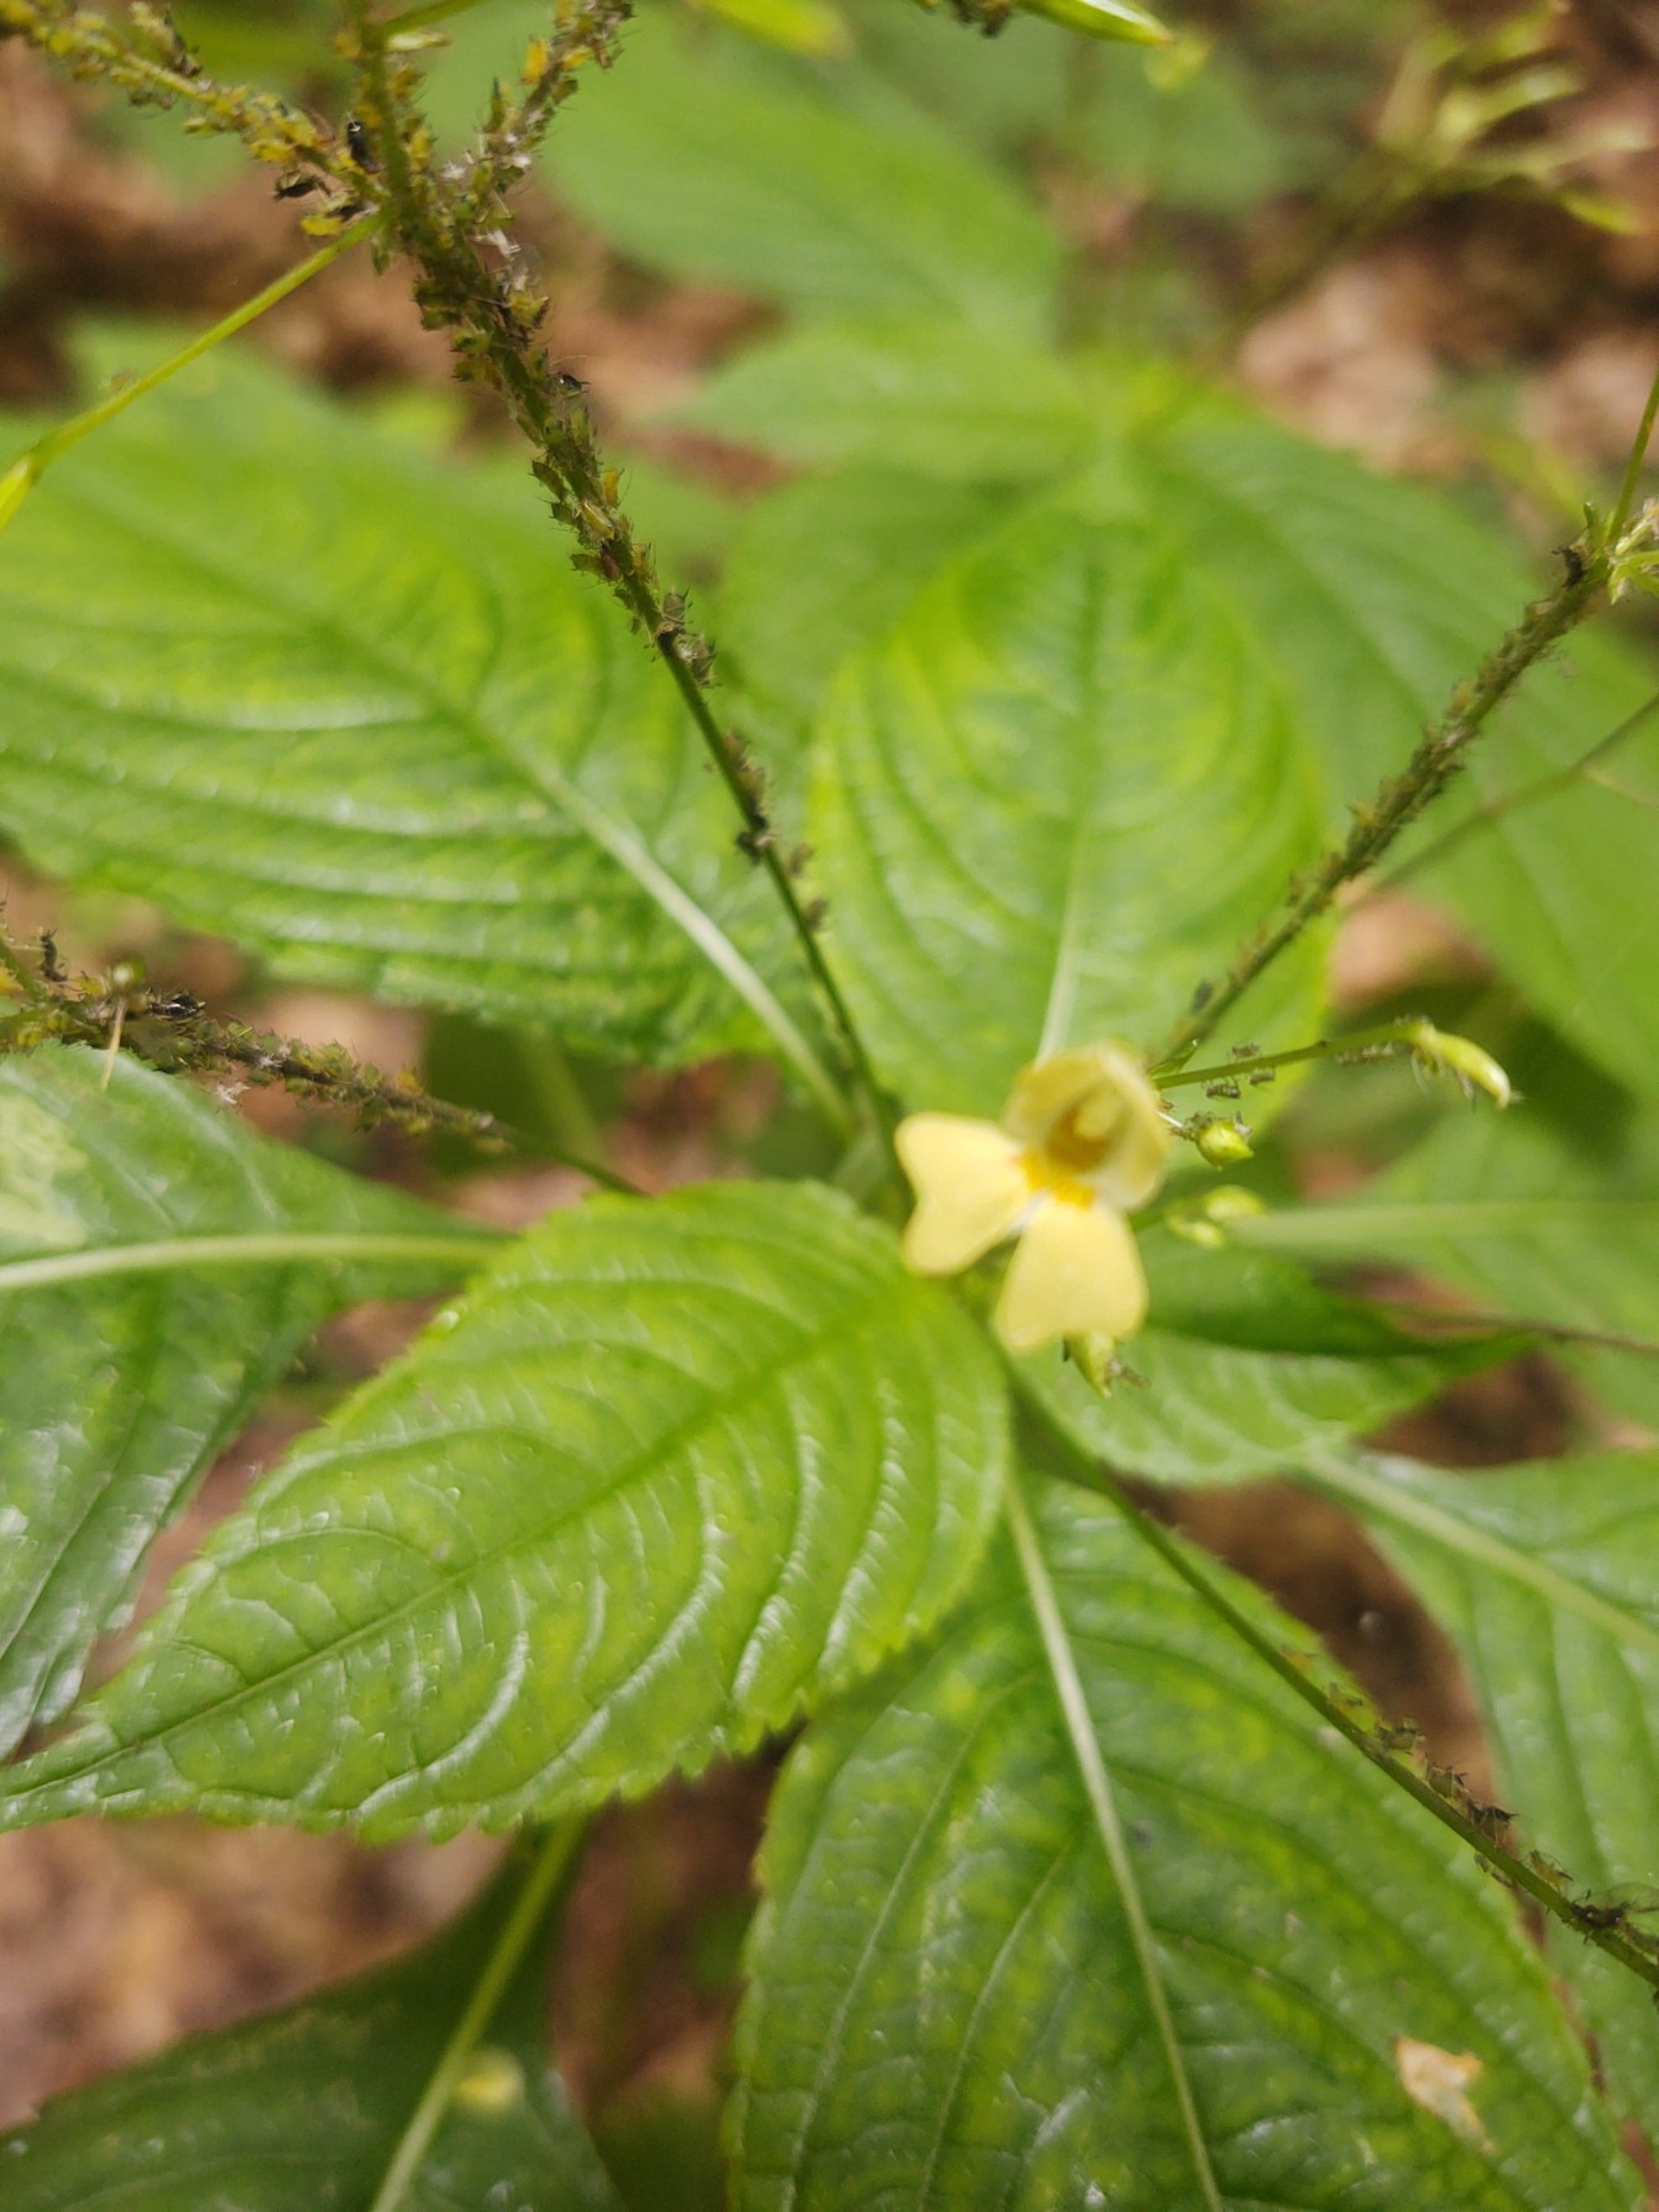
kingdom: Plantae
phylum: Tracheophyta
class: Magnoliopsida
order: Ericales
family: Balsaminaceae
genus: Impatiens
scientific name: Impatiens parviflora
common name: Småblomstret balsamin
